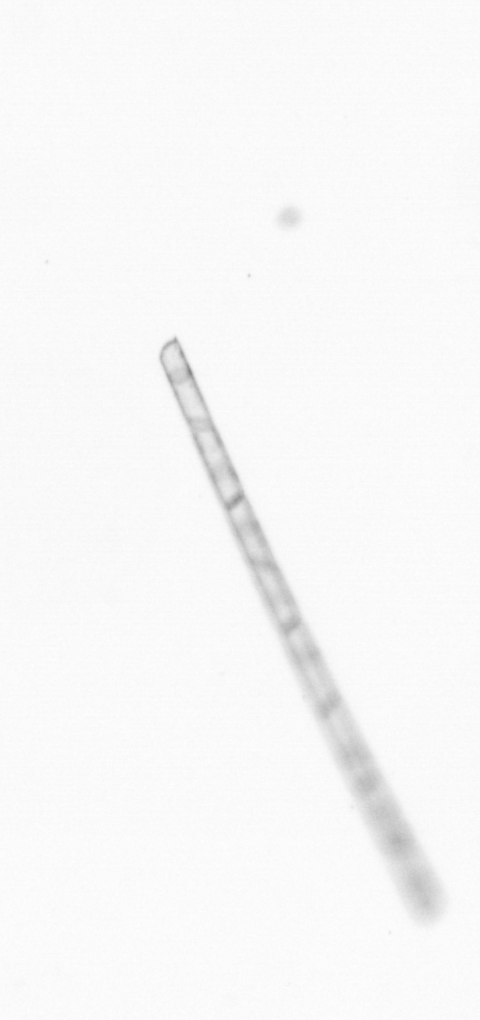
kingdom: Chromista
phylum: Ochrophyta
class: Bacillariophyceae
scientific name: Bacillariophyceae
